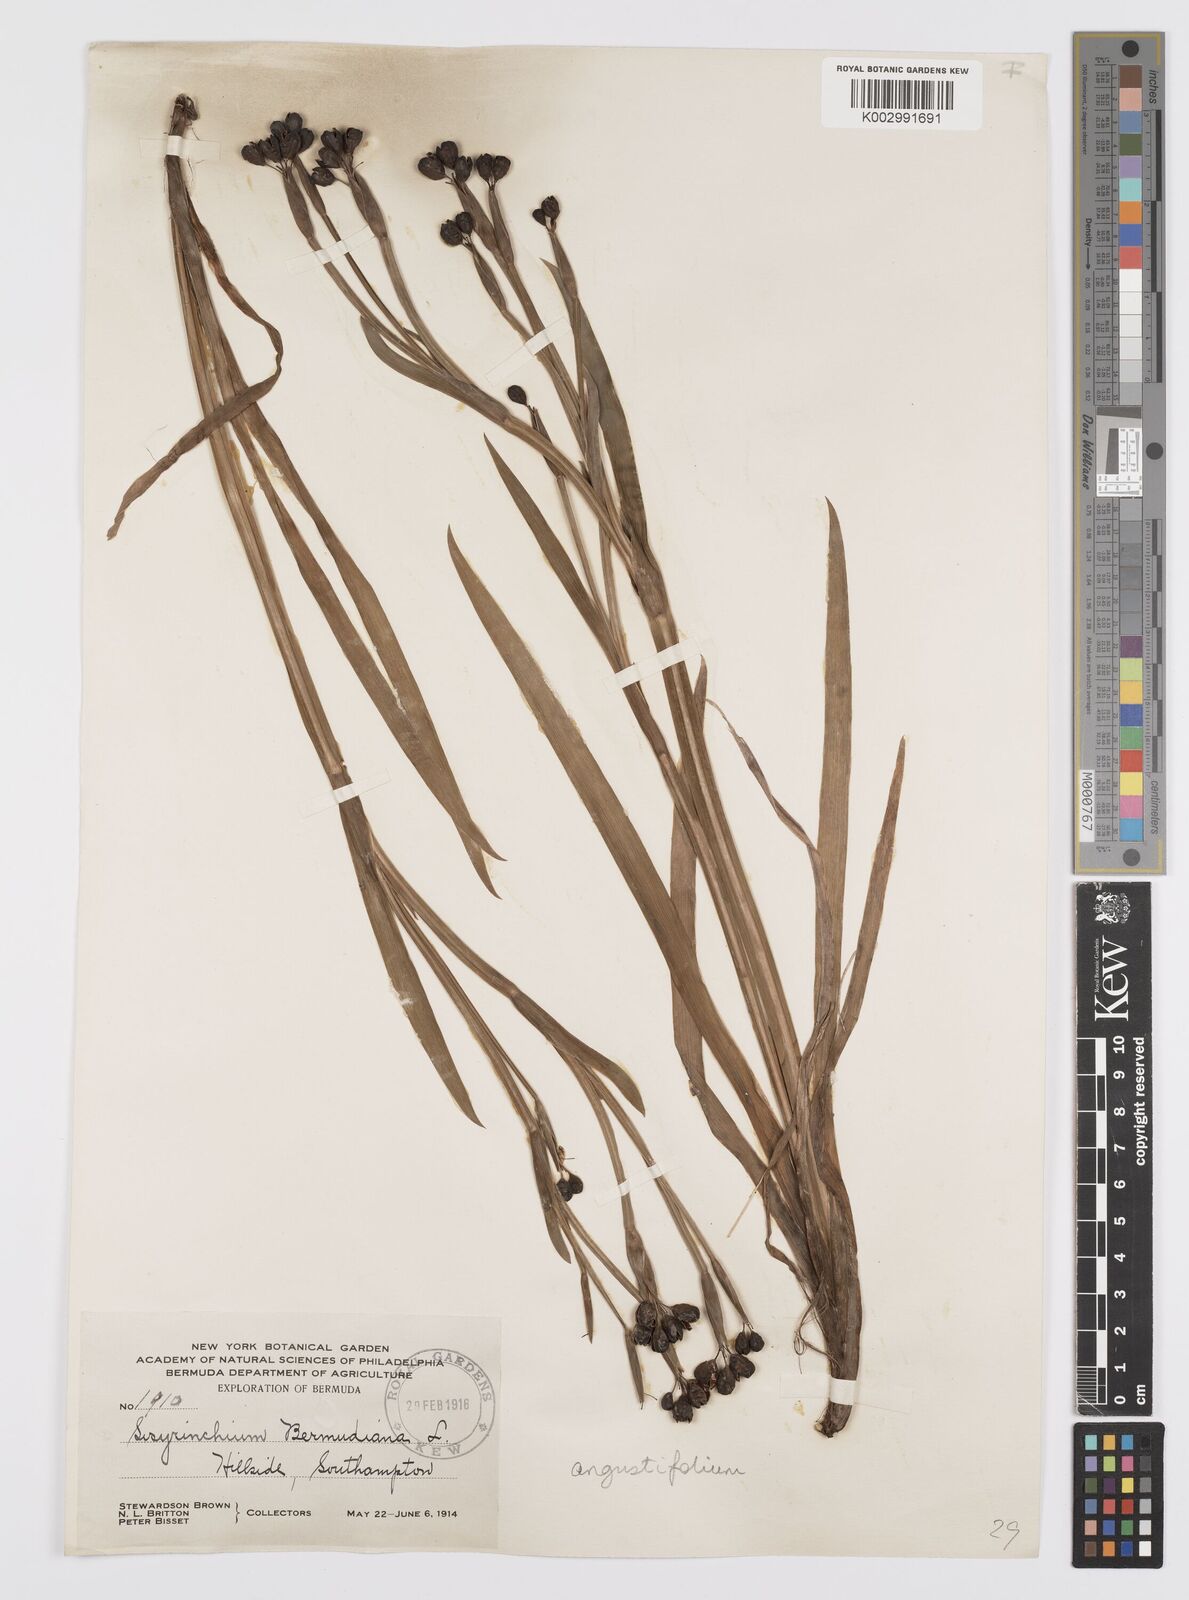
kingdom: Plantae
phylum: Tracheophyta
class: Liliopsida
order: Asparagales
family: Iridaceae
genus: Sisyrinchium
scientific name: Sisyrinchium
